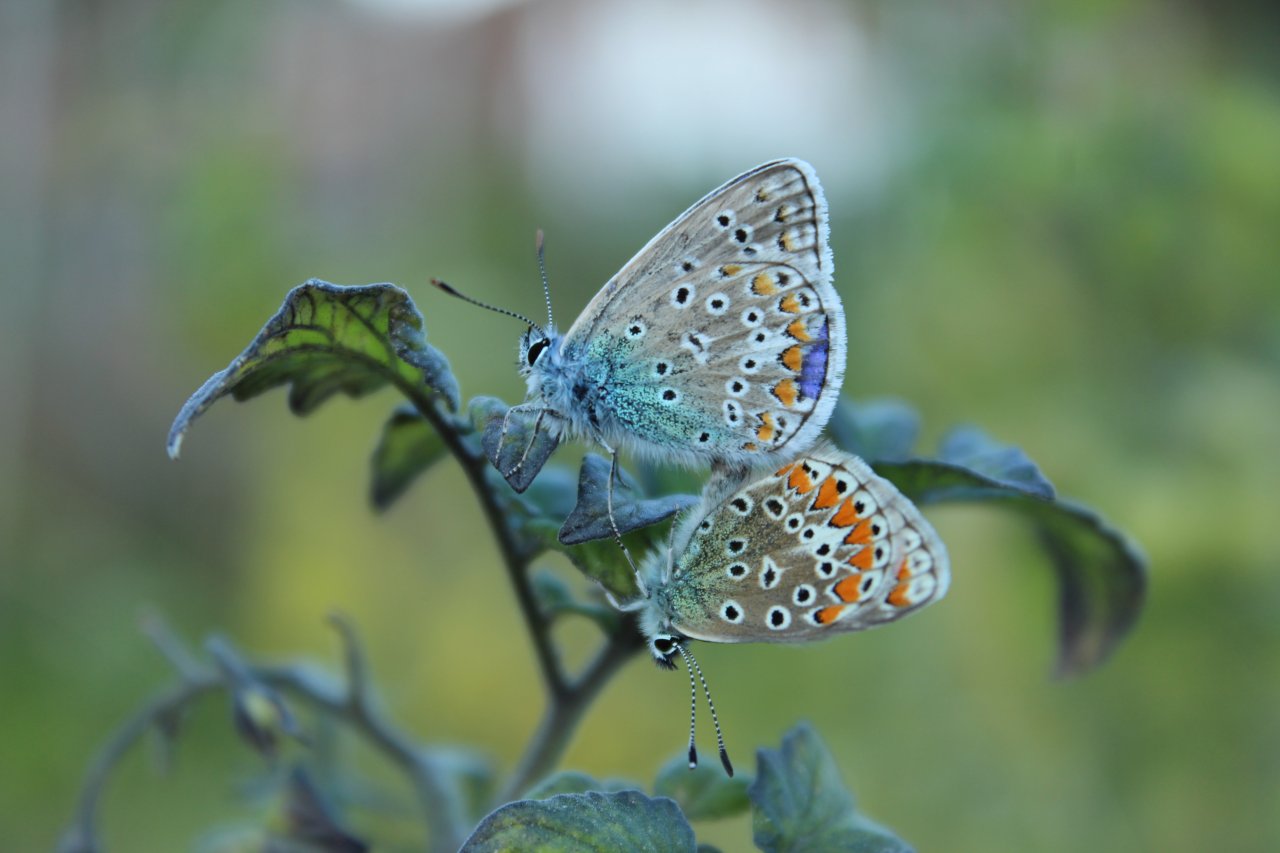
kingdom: Animalia
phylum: Arthropoda
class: Insecta
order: Lepidoptera
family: Lycaenidae
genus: Polyommatus
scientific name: Polyommatus icarus
